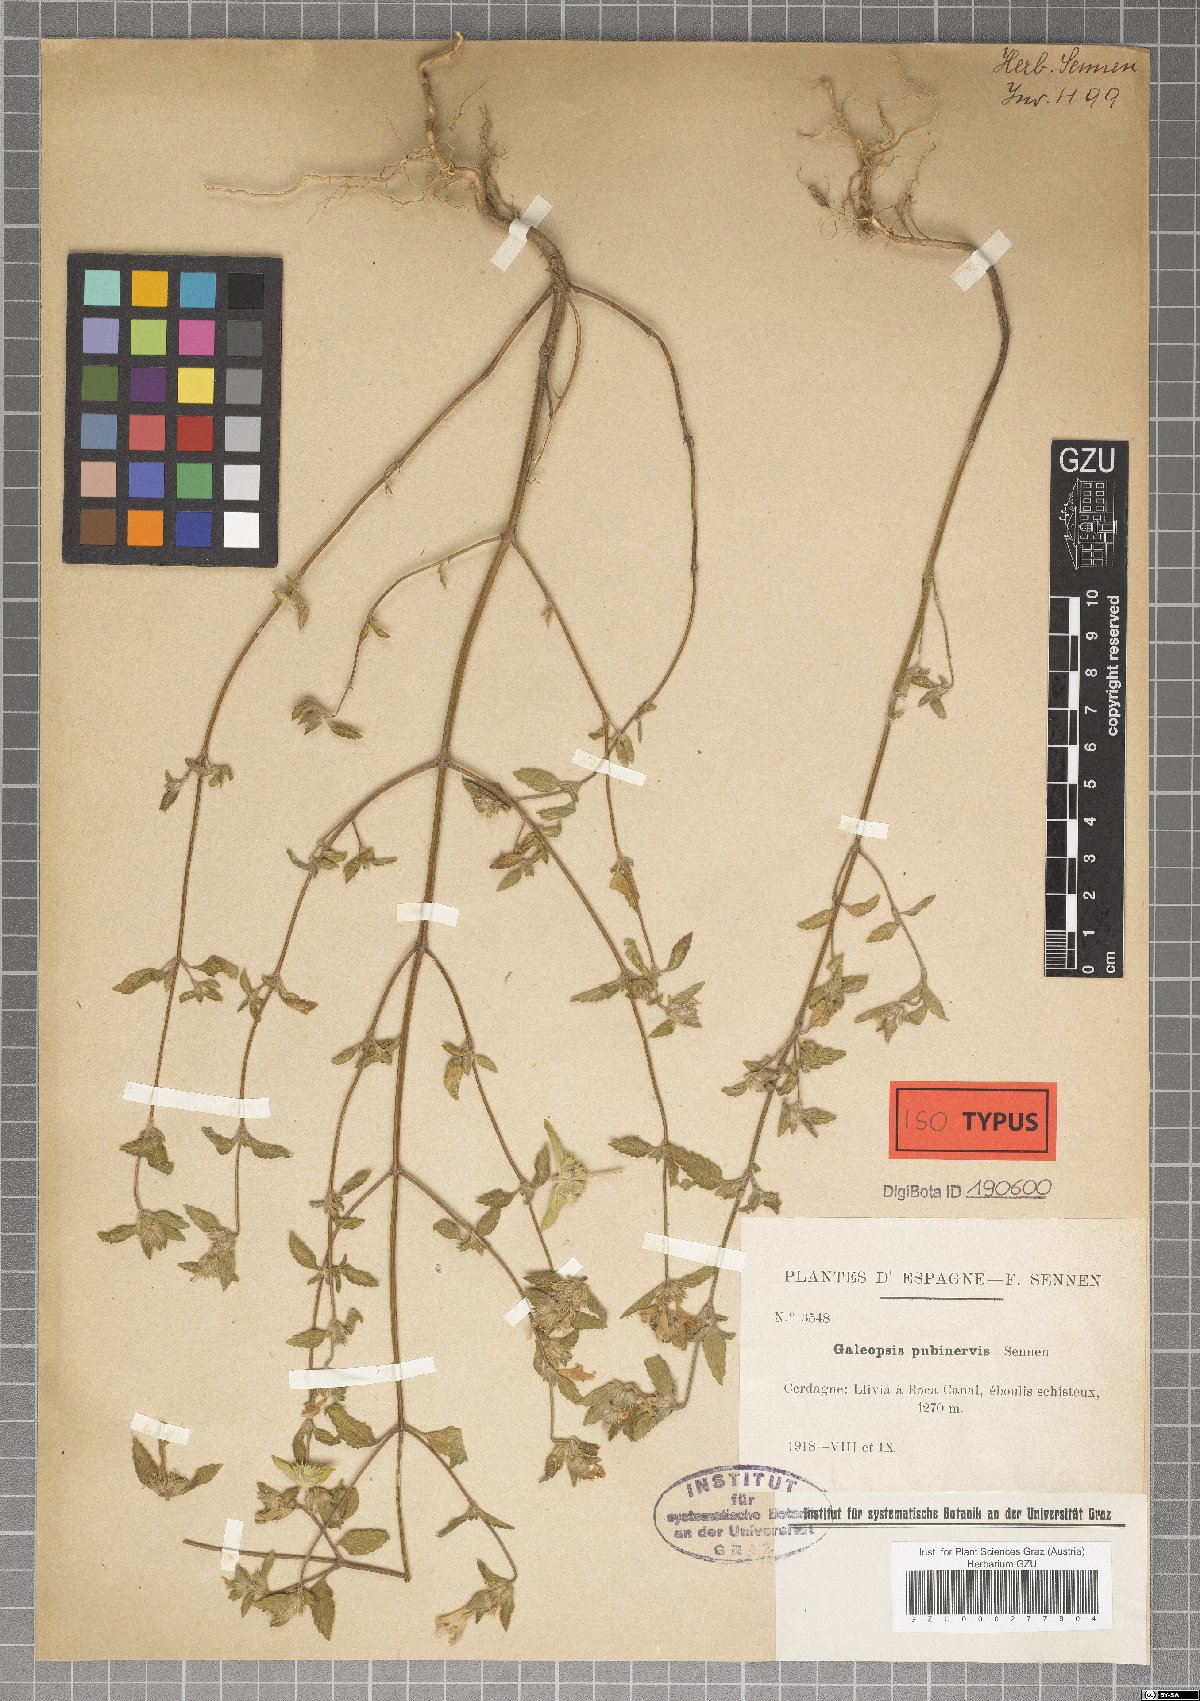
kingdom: Plantae
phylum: Tracheophyta
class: Magnoliopsida
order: Lamiales
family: Lamiaceae
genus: Galeopsis
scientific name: Galeopsis pyrenaica
